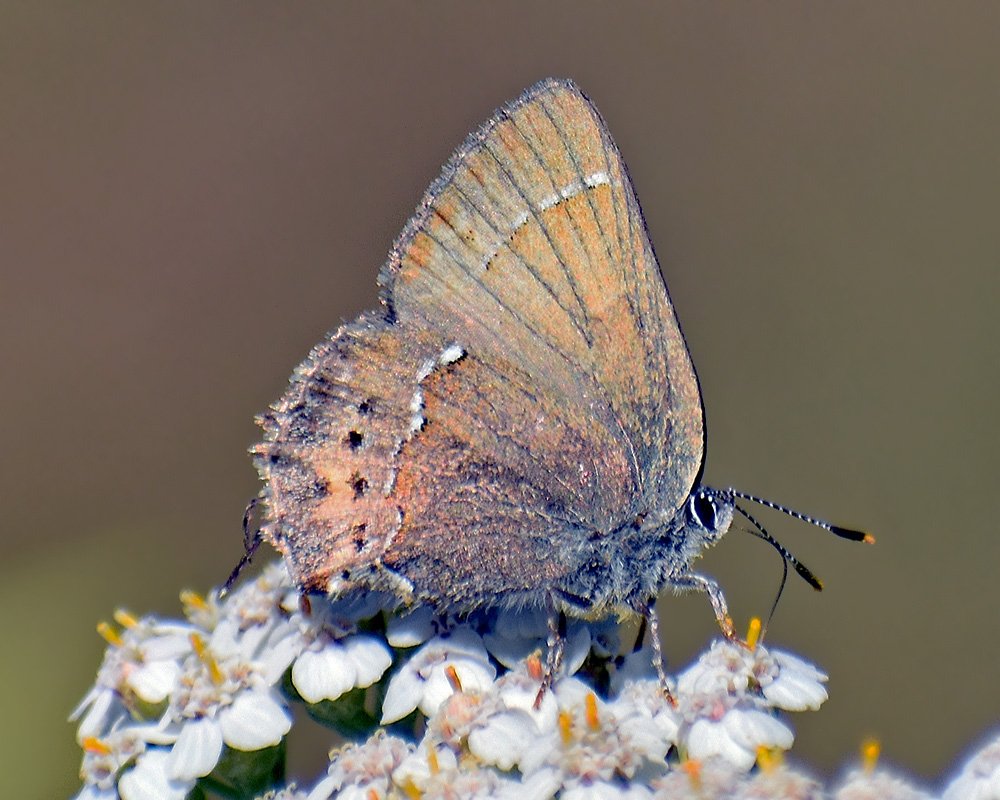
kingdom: Animalia
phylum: Arthropoda
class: Insecta
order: Lepidoptera
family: Lycaenidae
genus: Mitoura
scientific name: Mitoura nelsoni
